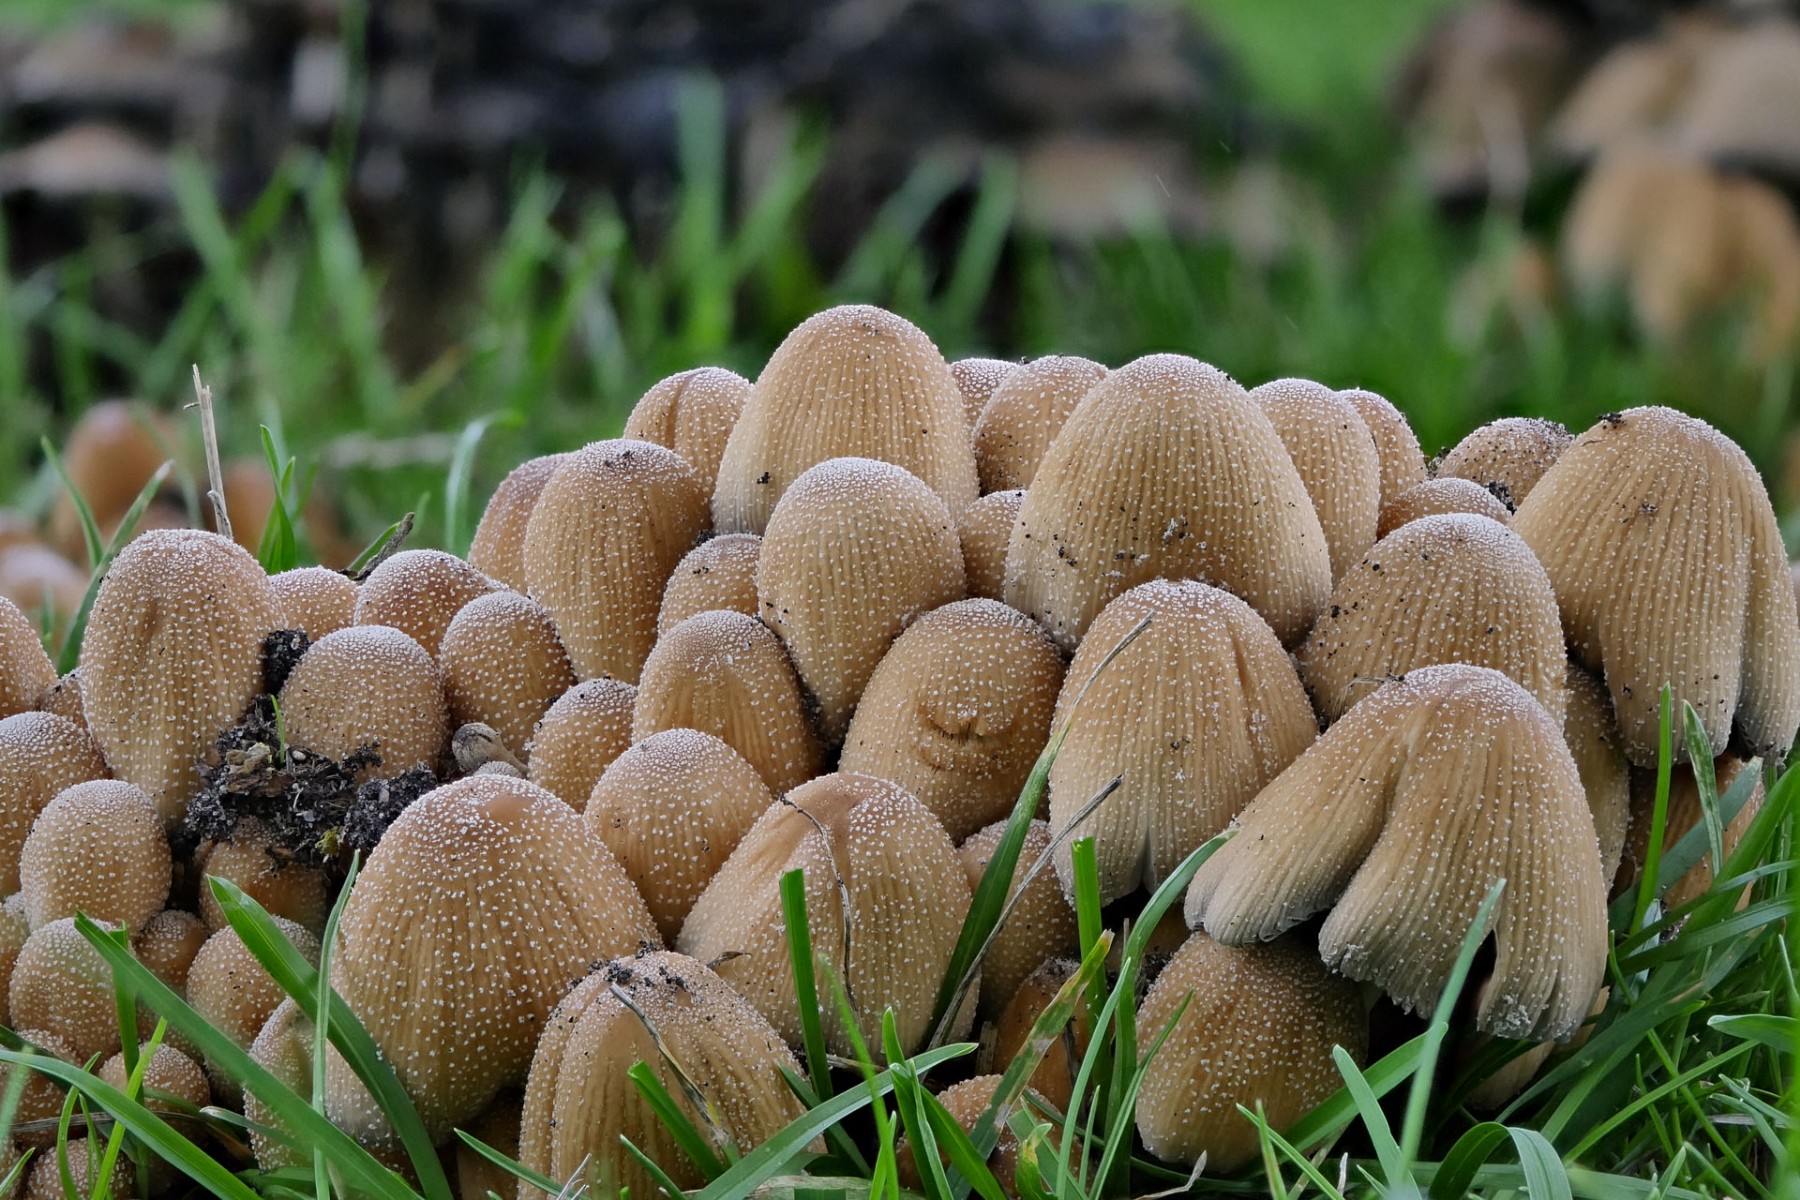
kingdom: Fungi
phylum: Basidiomycota
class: Agaricomycetes
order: Agaricales
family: Psathyrellaceae
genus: Coprinellus
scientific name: Coprinellus micaceus
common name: glimmer-blækhat
